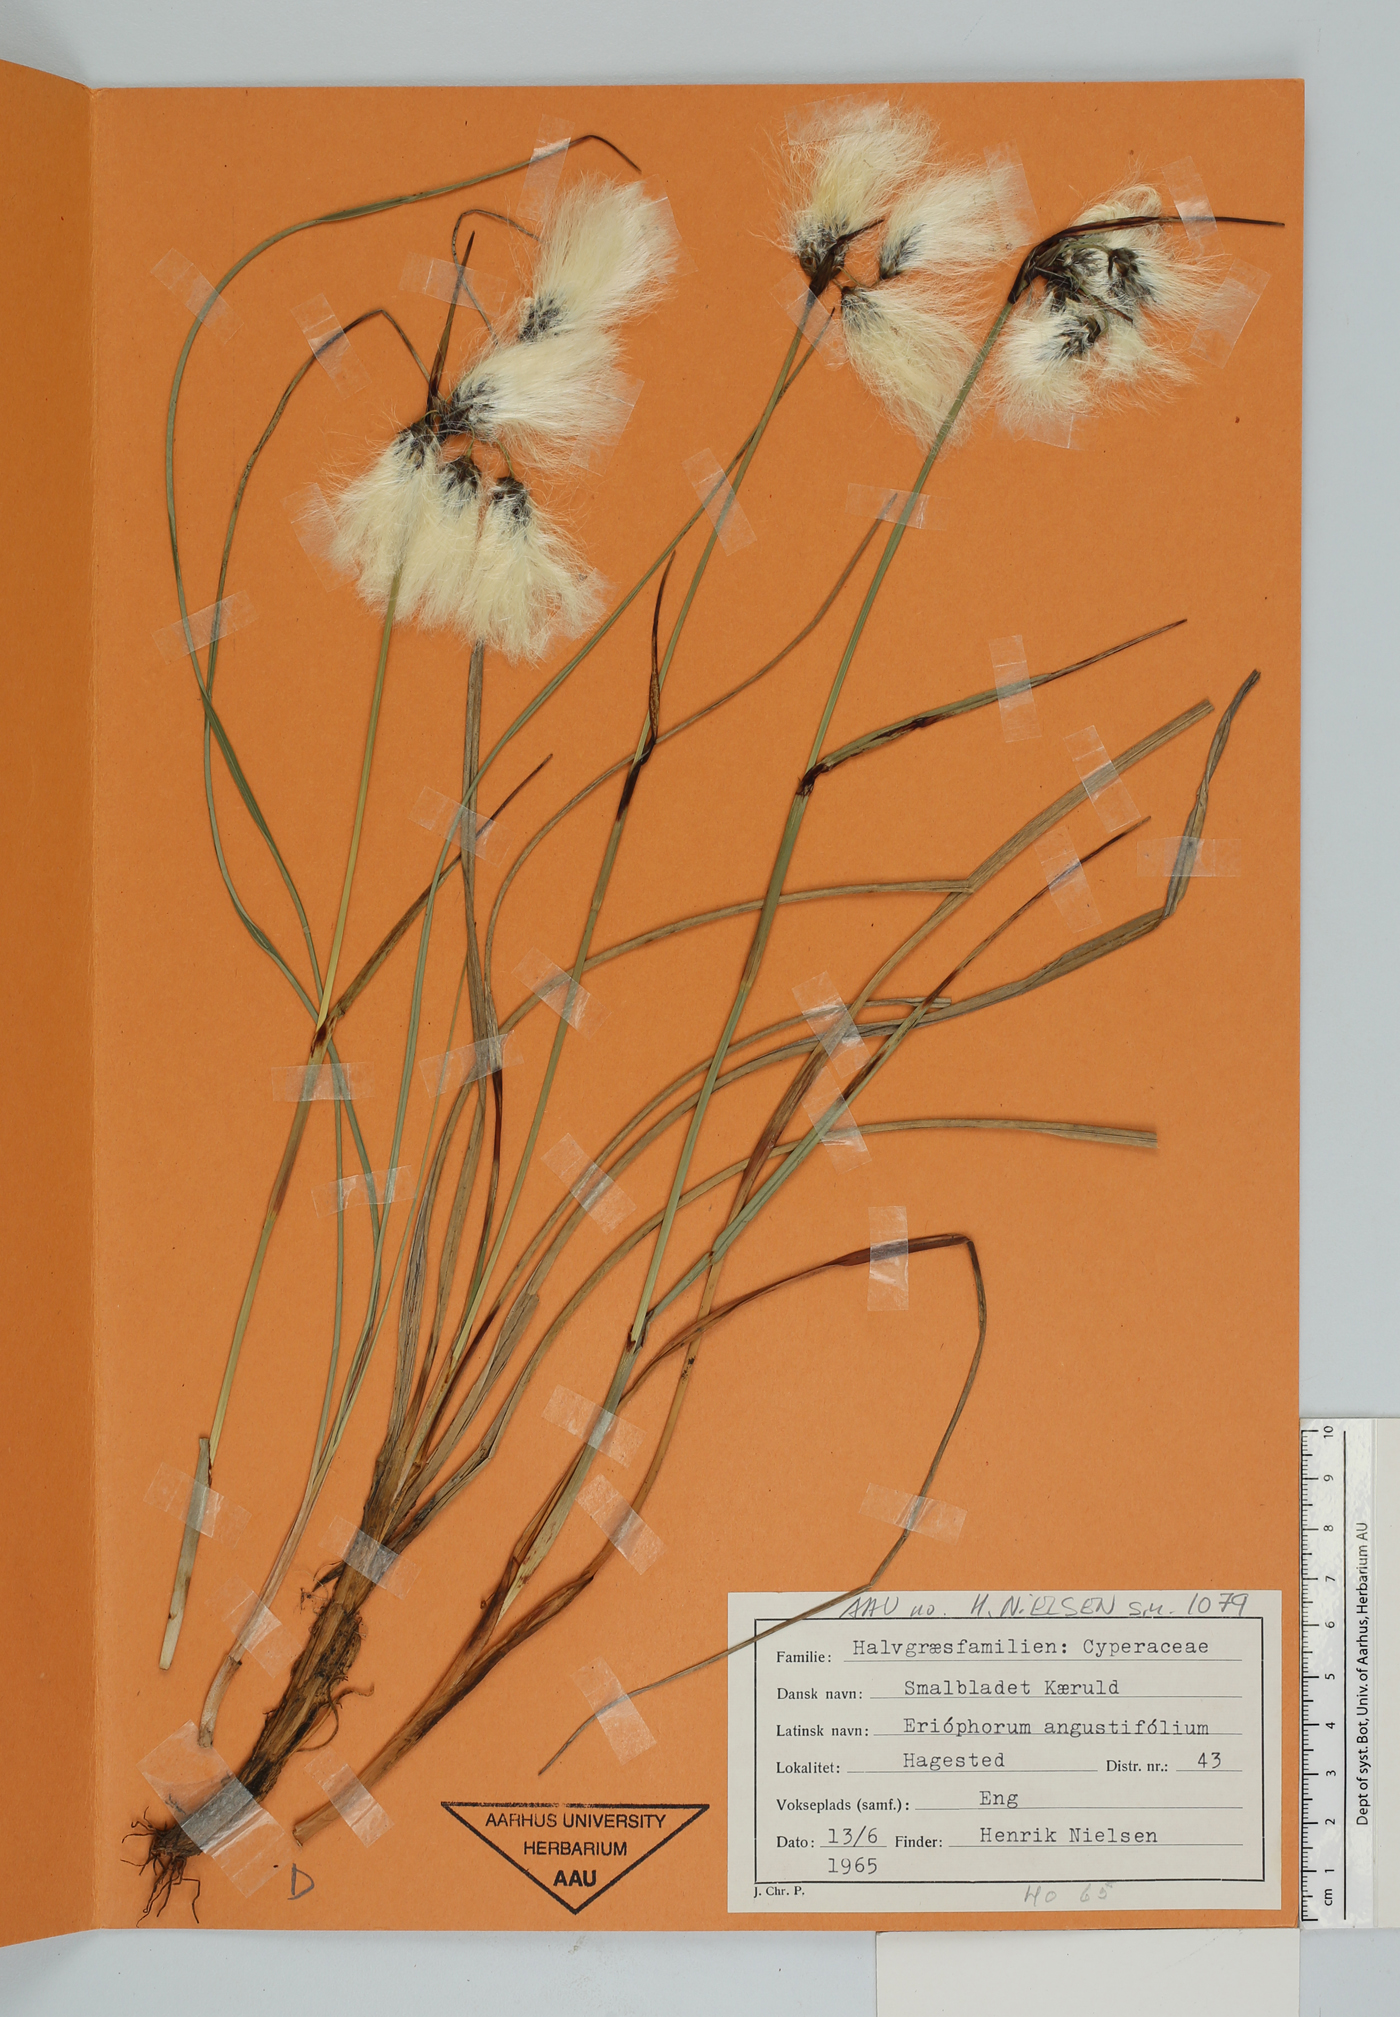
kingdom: Plantae
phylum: Tracheophyta
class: Liliopsida
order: Poales
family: Cyperaceae
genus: Eriophorum
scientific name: Eriophorum angustifolium
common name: Common cottongrass
